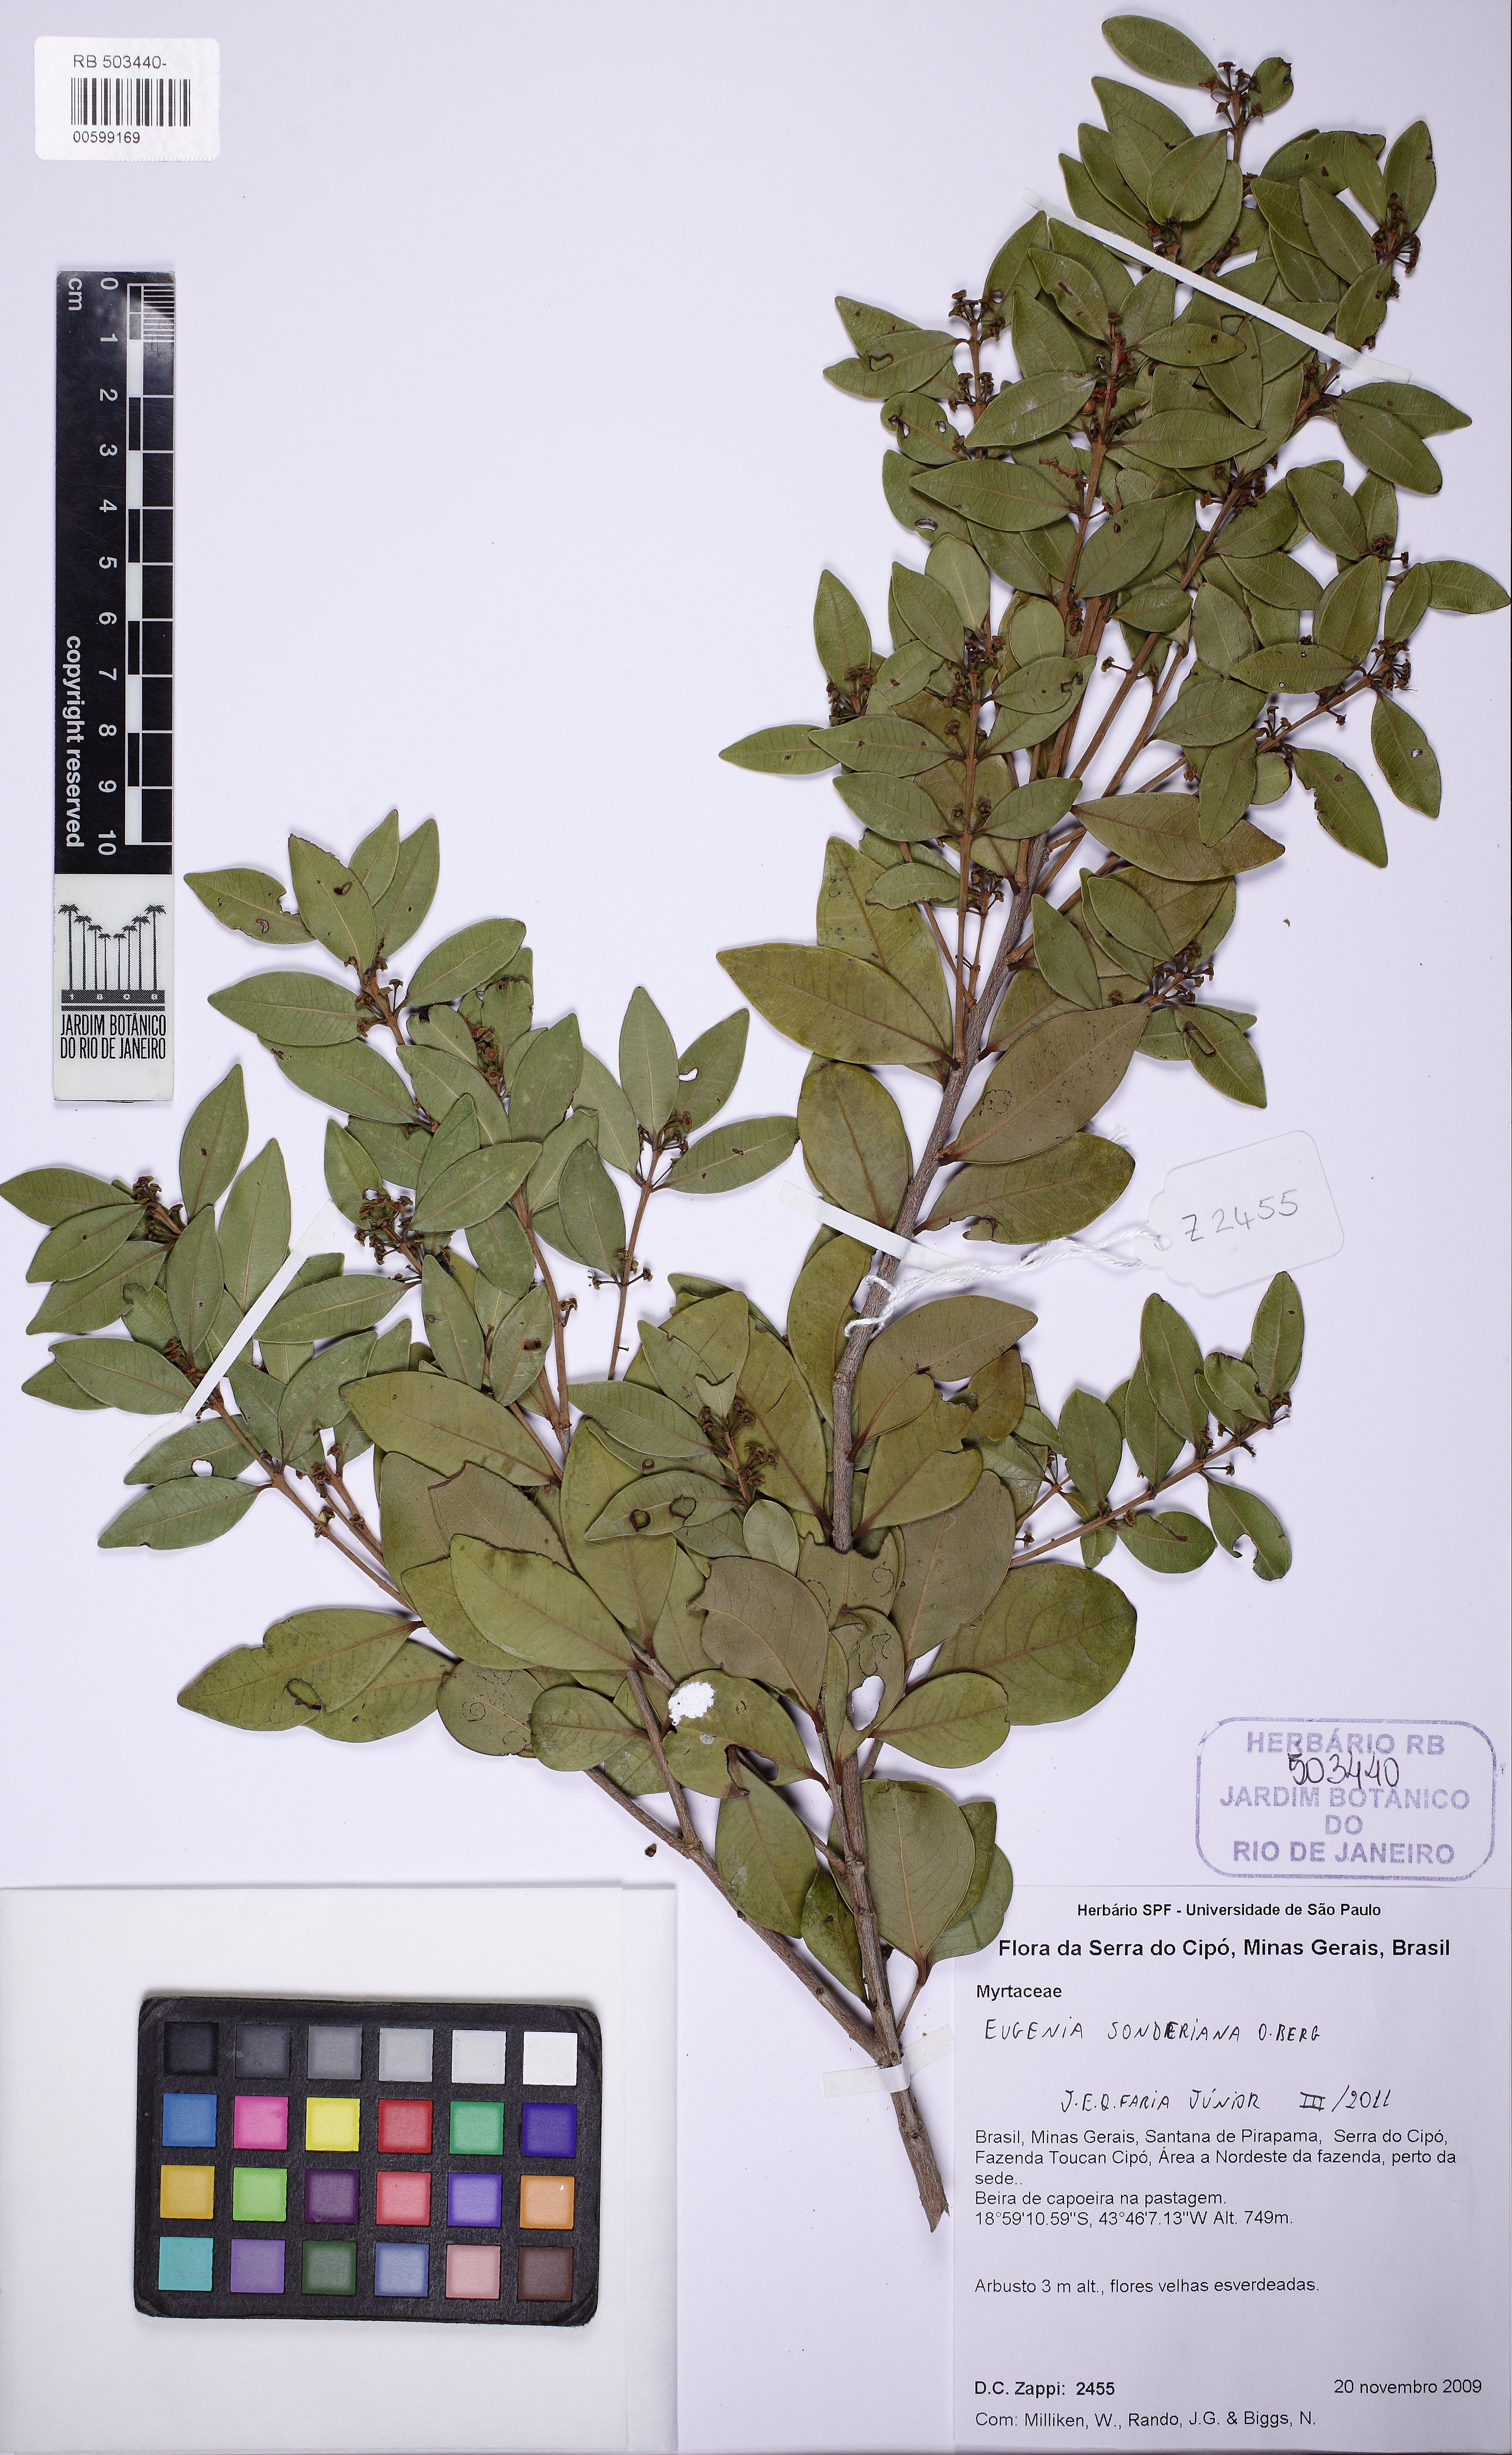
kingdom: Plantae
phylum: Tracheophyta
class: Magnoliopsida
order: Myrtales
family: Myrtaceae
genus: Eugenia
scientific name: Eugenia sonderiana
